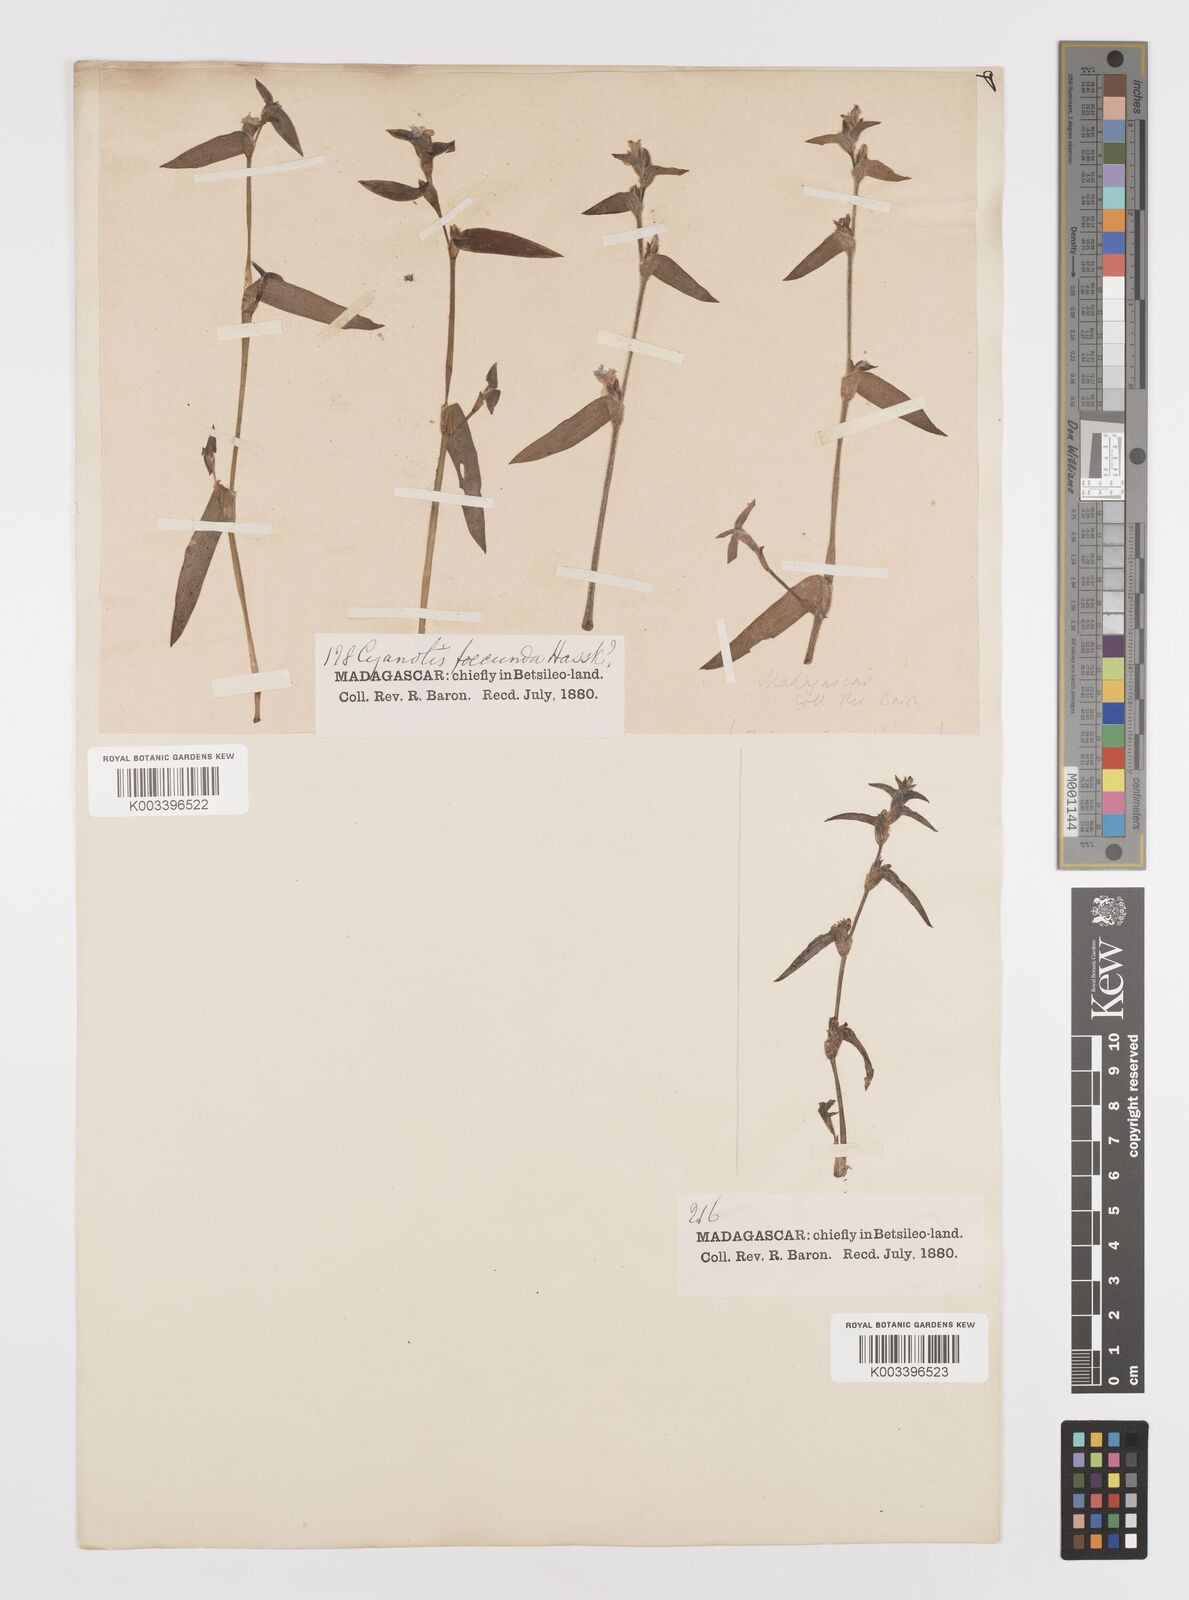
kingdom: Plantae
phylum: Tracheophyta
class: Liliopsida
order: Commelinales
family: Commelinaceae
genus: Cyanotis
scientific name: Cyanotis
